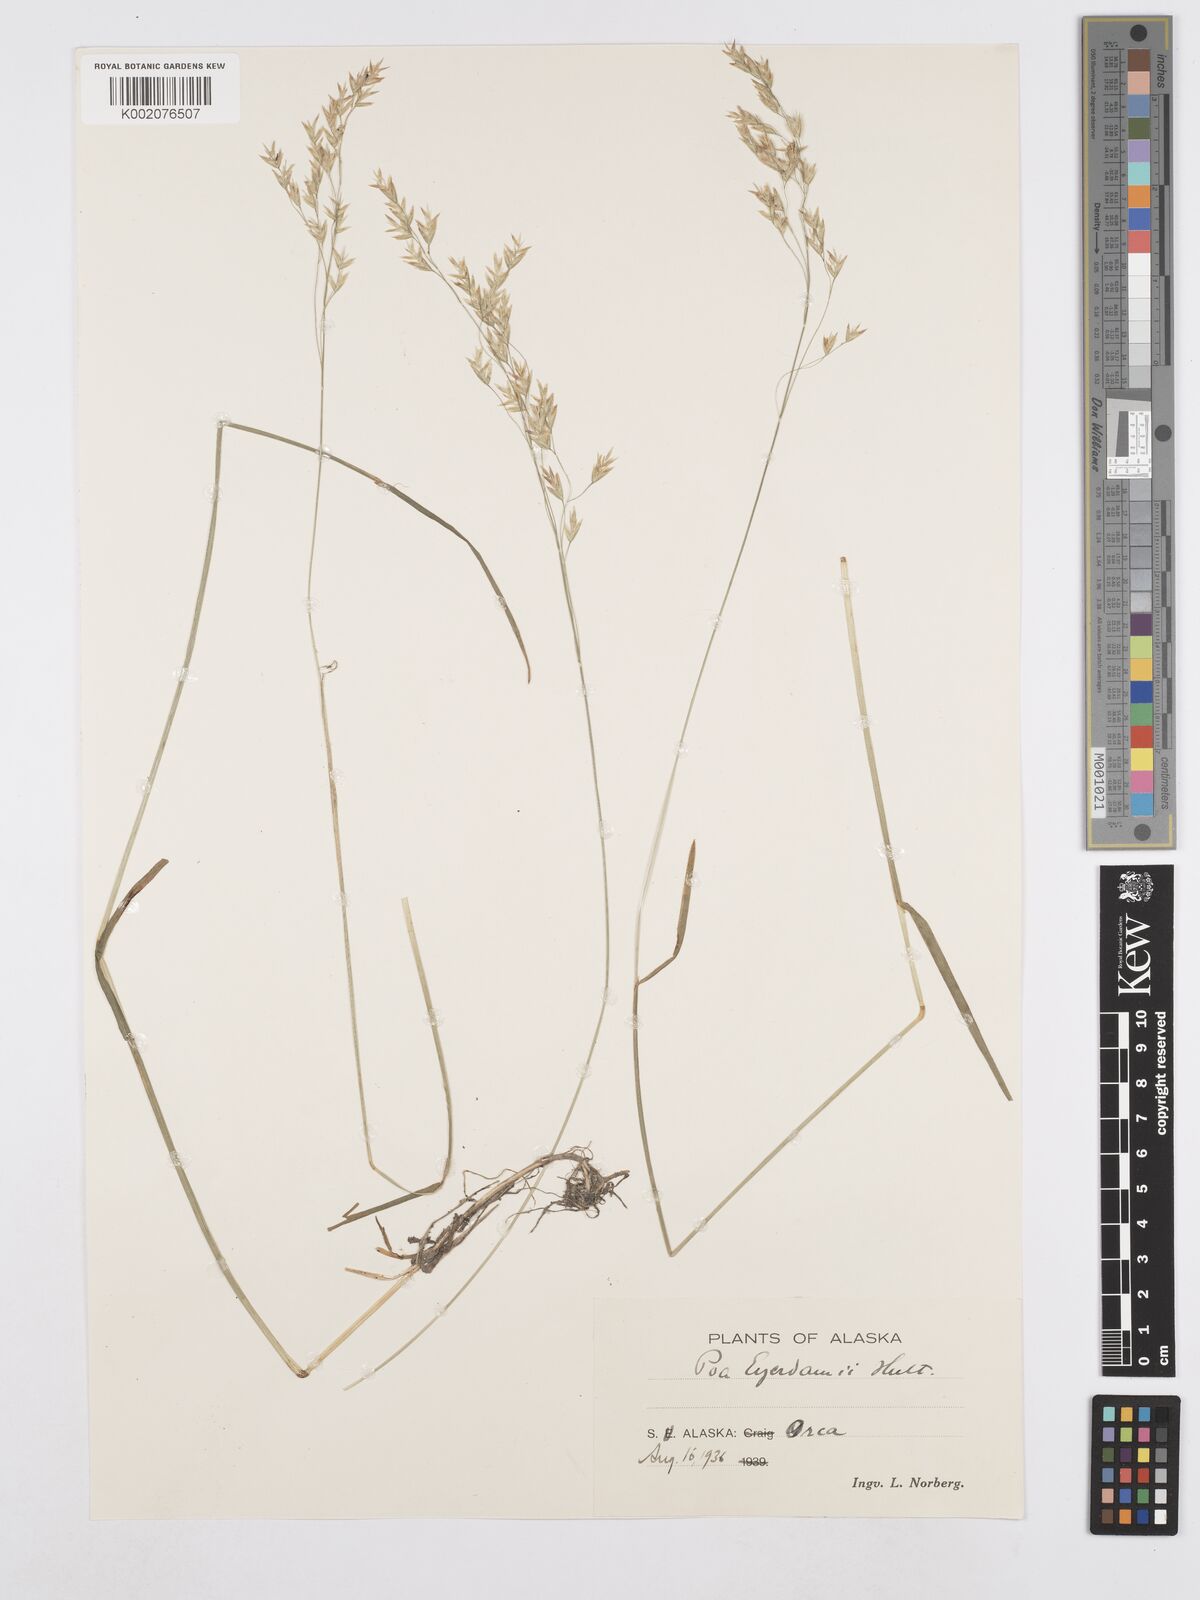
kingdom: Plantae
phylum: Tracheophyta
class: Liliopsida
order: Poales
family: Poaceae
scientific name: Poaceae
